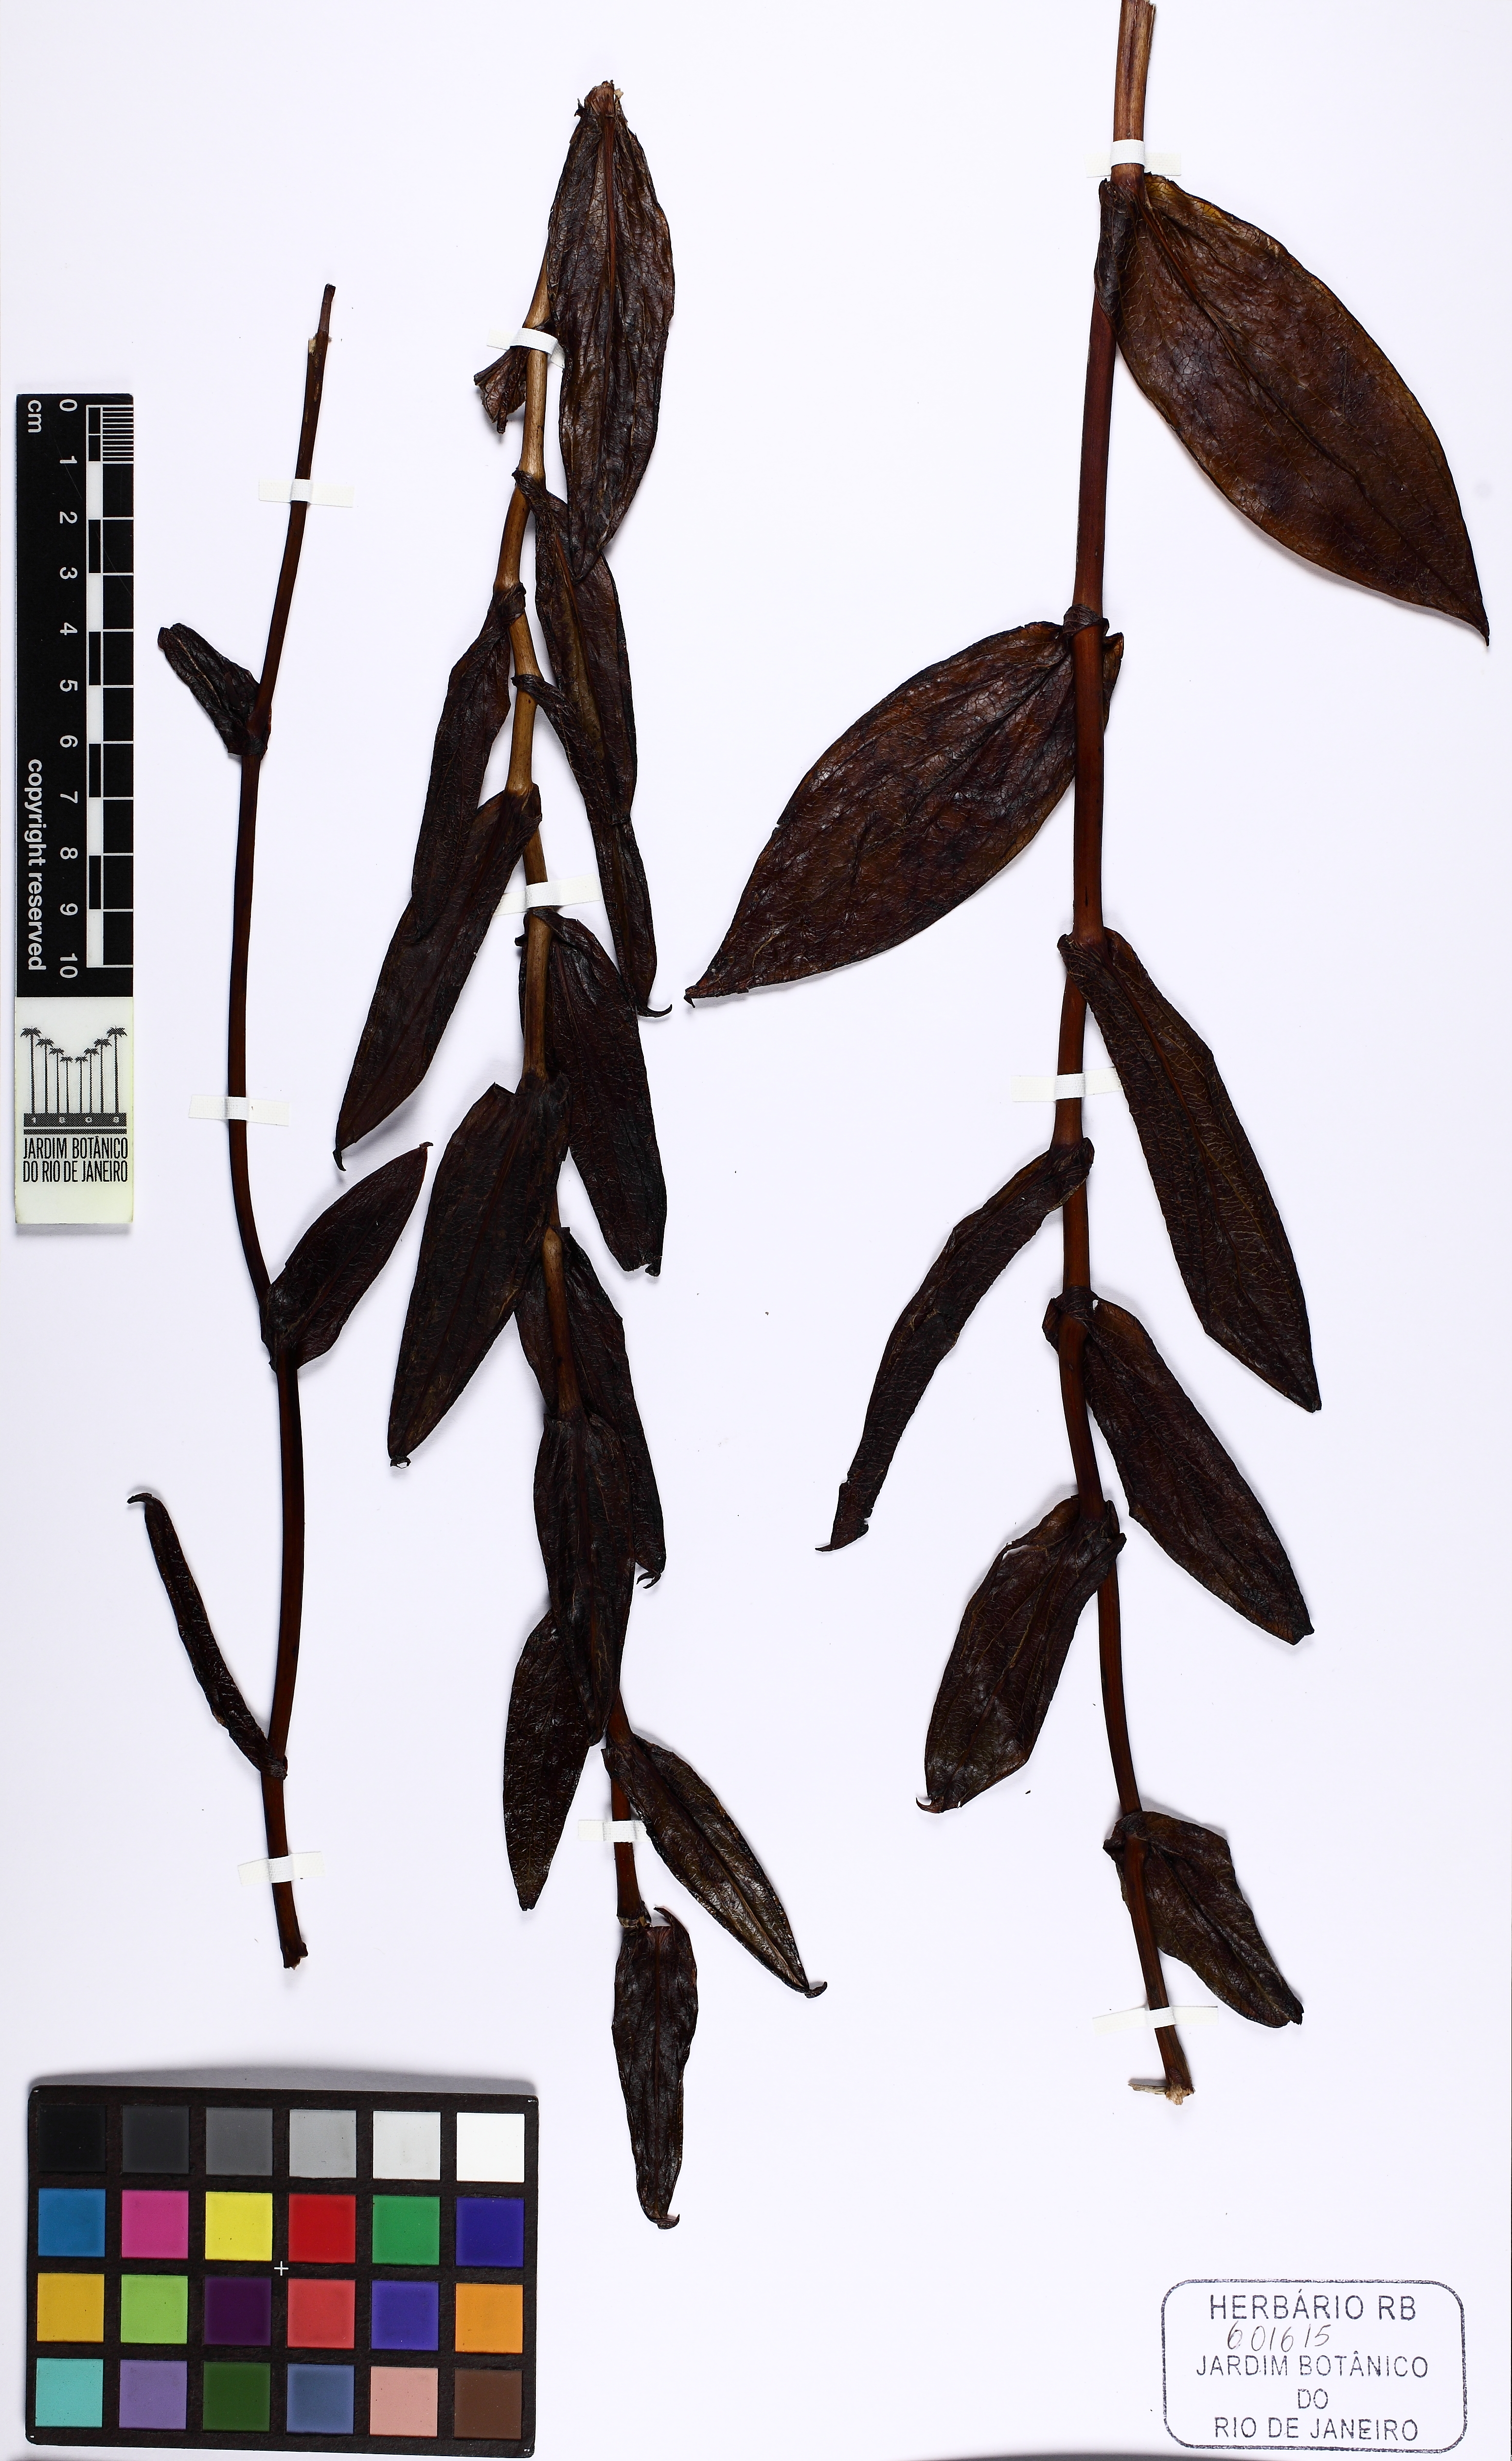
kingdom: Plantae
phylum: Tracheophyta
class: Liliopsida
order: Asparagales
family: Orchidaceae
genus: Epistephium
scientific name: Epistephium parviflorum
